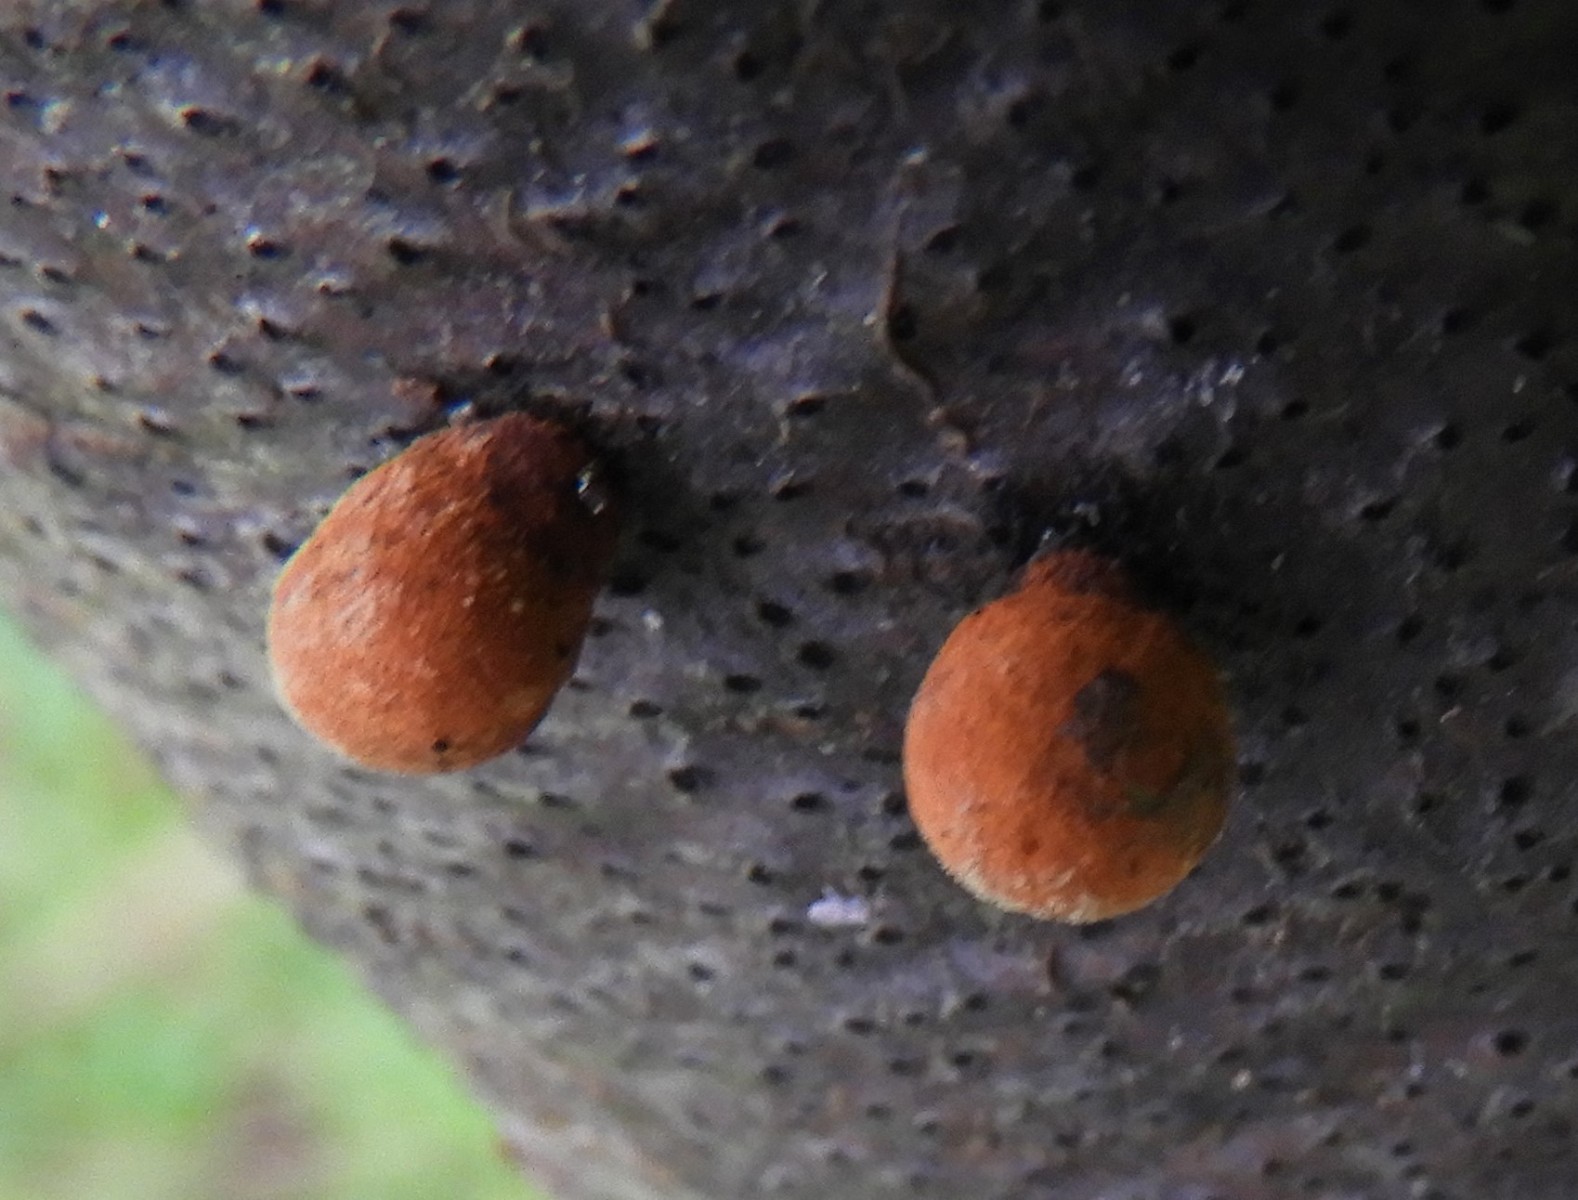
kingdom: Fungi
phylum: Ascomycota
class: Sordariomycetes
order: Xylariales
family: Hypoxylaceae
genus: Hypoxylon
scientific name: Hypoxylon
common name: kulbær
